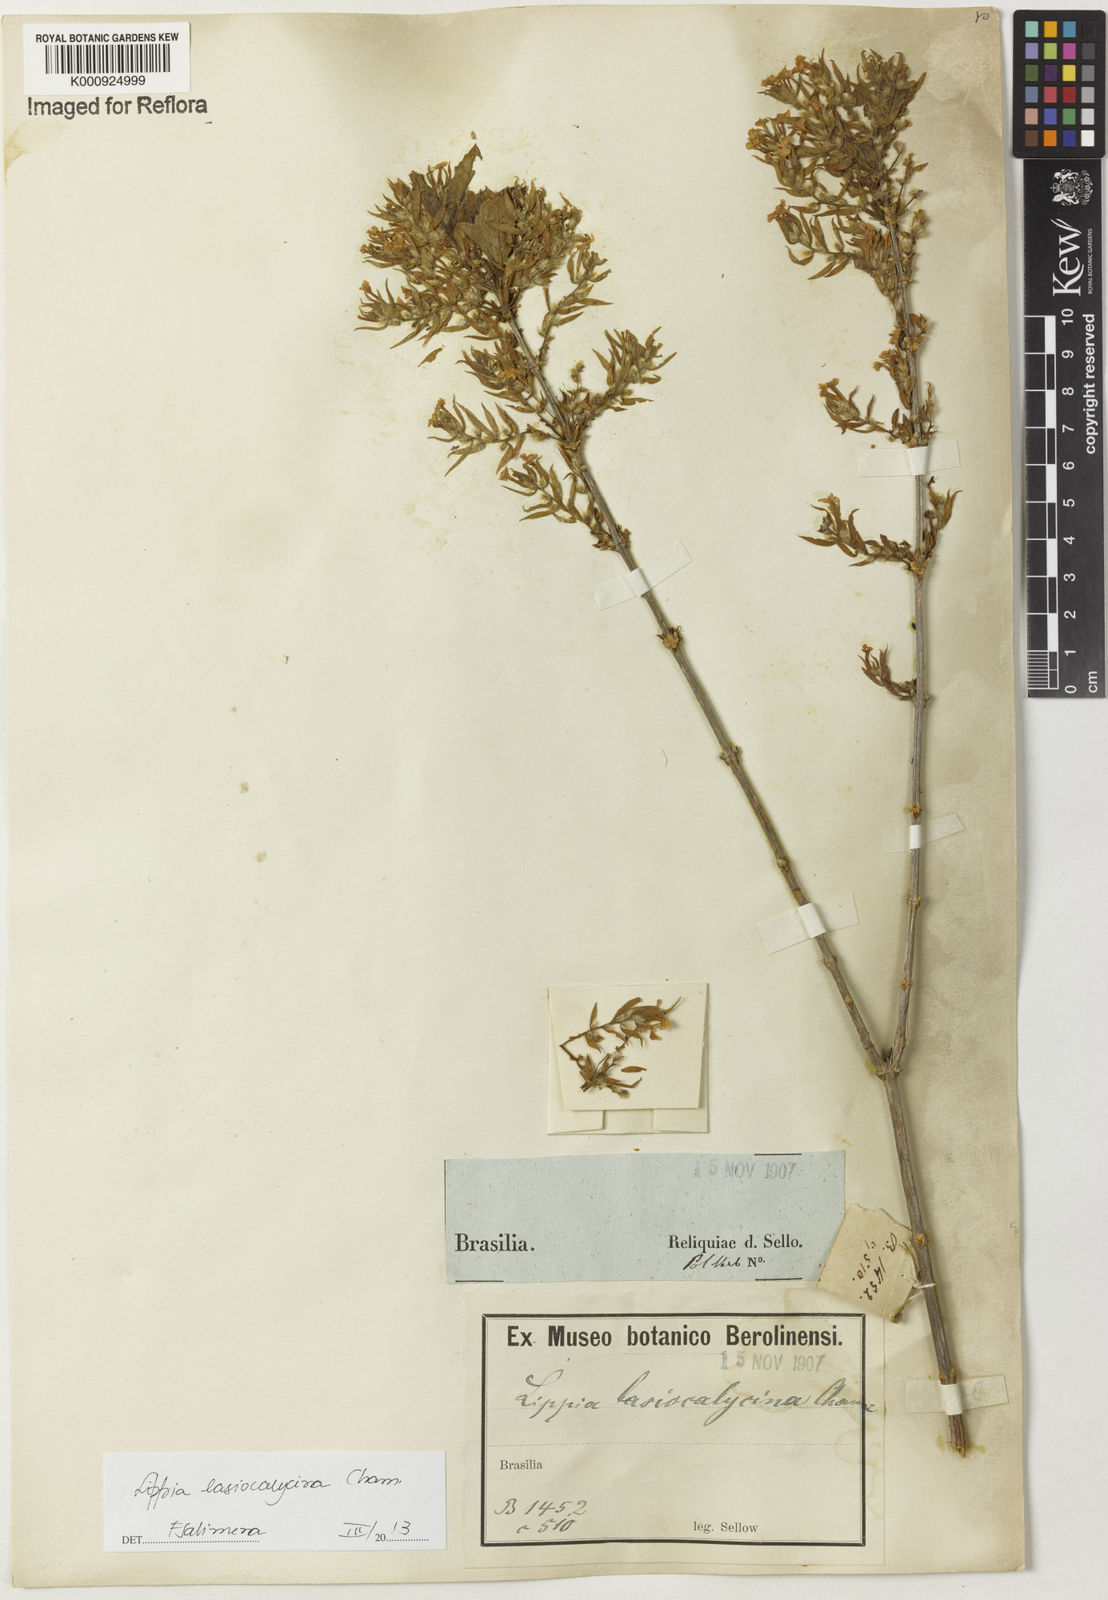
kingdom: Plantae
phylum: Tracheophyta
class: Magnoliopsida
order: Lamiales
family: Verbenaceae
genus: Lippia
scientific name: Lippia lasiocalycina
